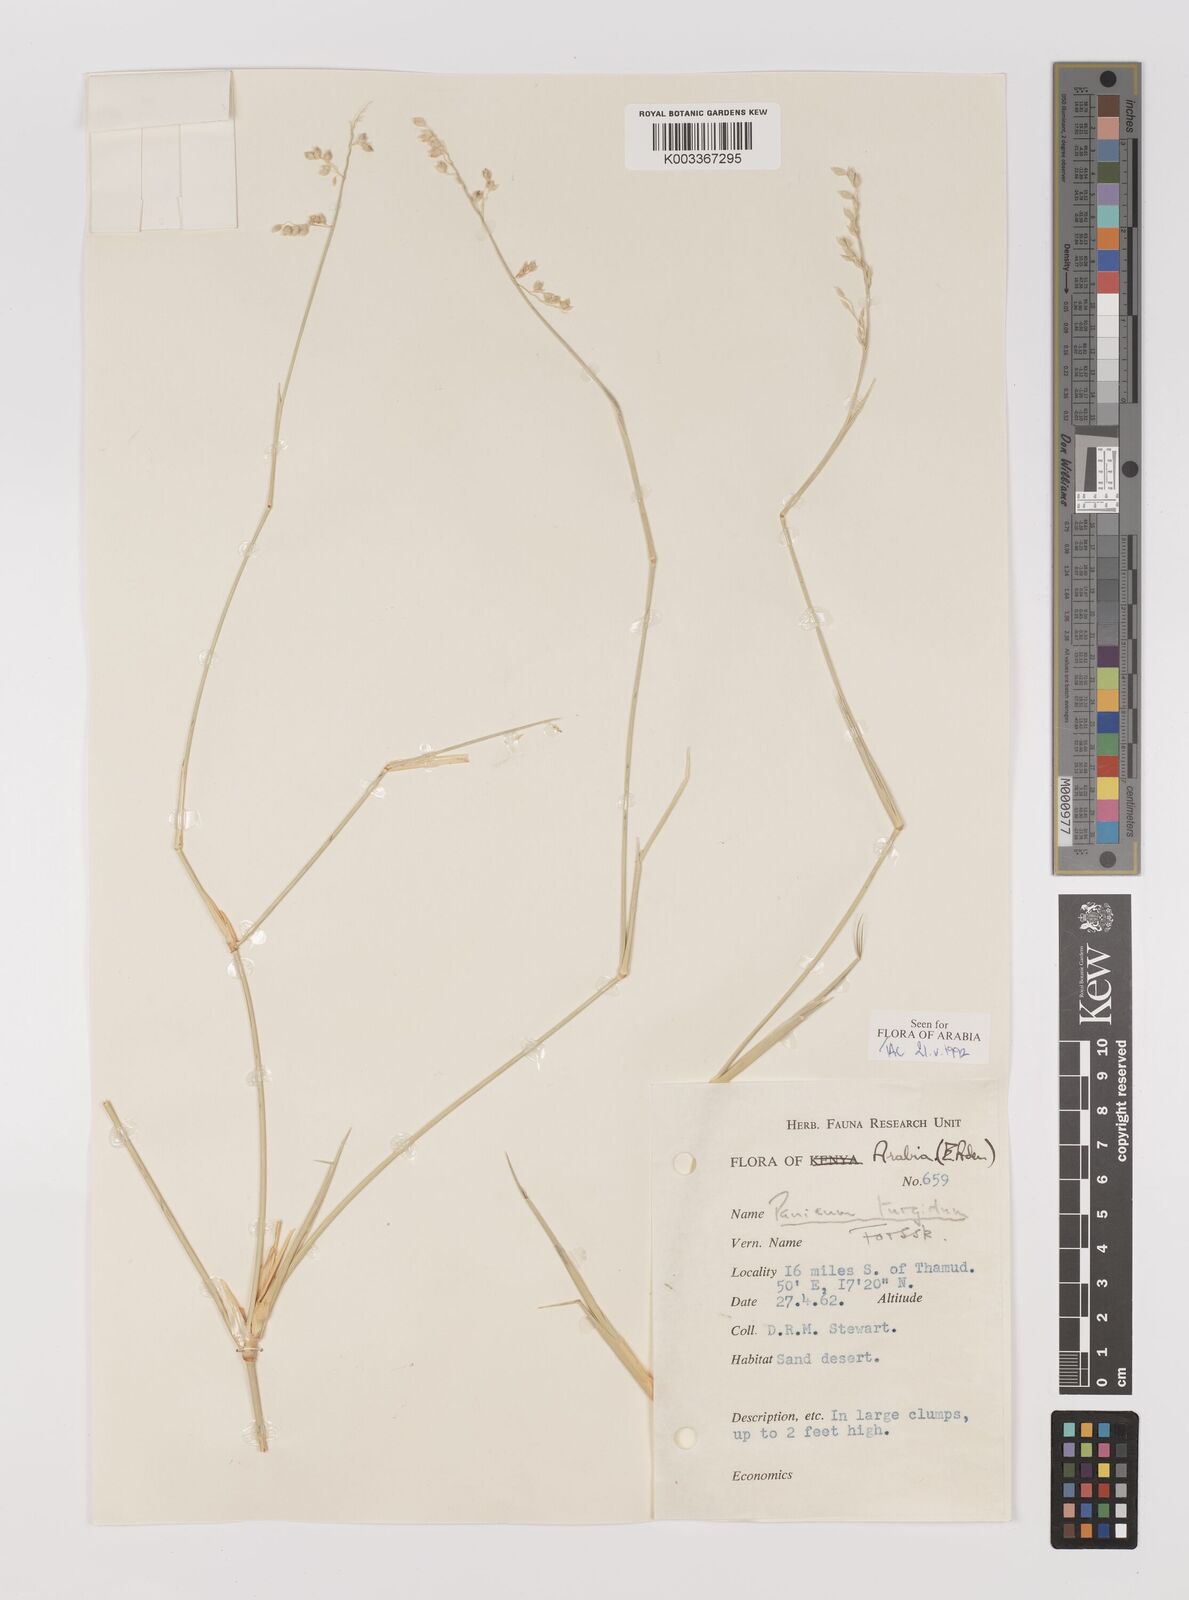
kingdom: Plantae
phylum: Tracheophyta
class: Liliopsida
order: Poales
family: Poaceae
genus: Panicum
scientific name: Panicum turgidum
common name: Desert grass
